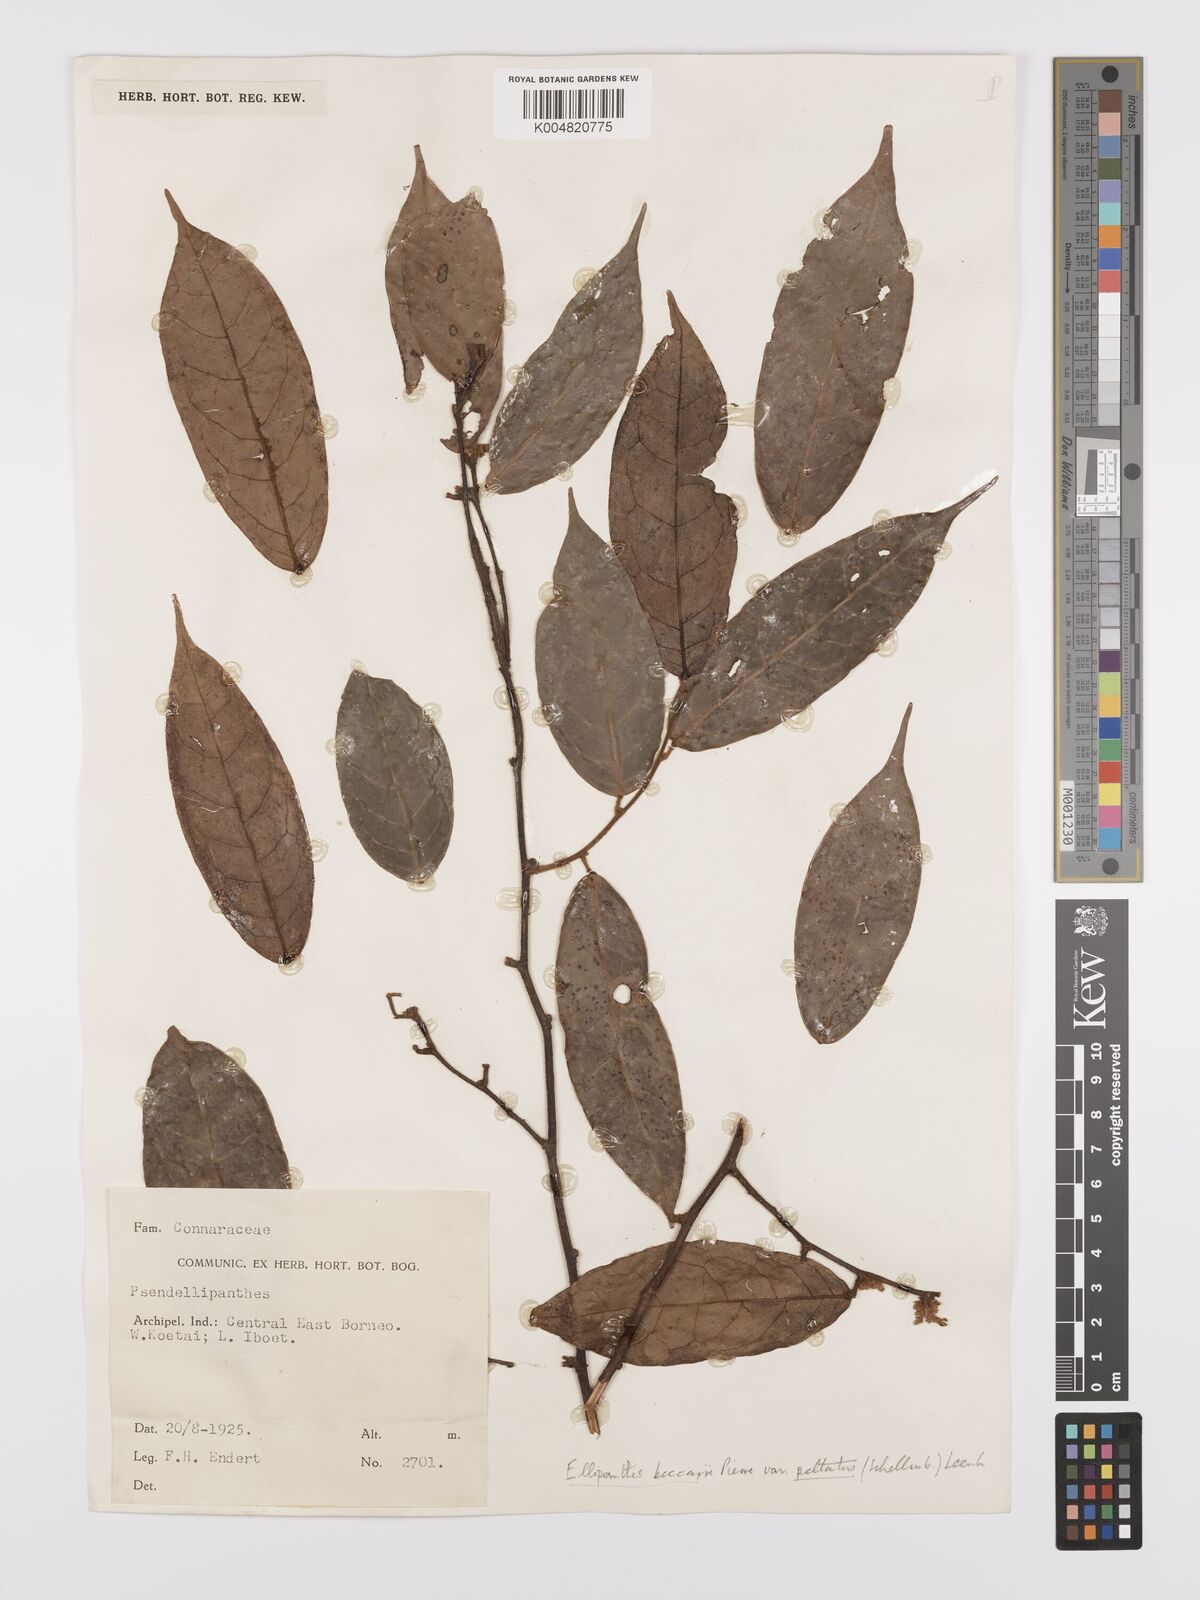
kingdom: Plantae
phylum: Tracheophyta
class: Magnoliopsida
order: Oxalidales
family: Connaraceae
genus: Ellipanthus
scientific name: Ellipanthus beccarii
